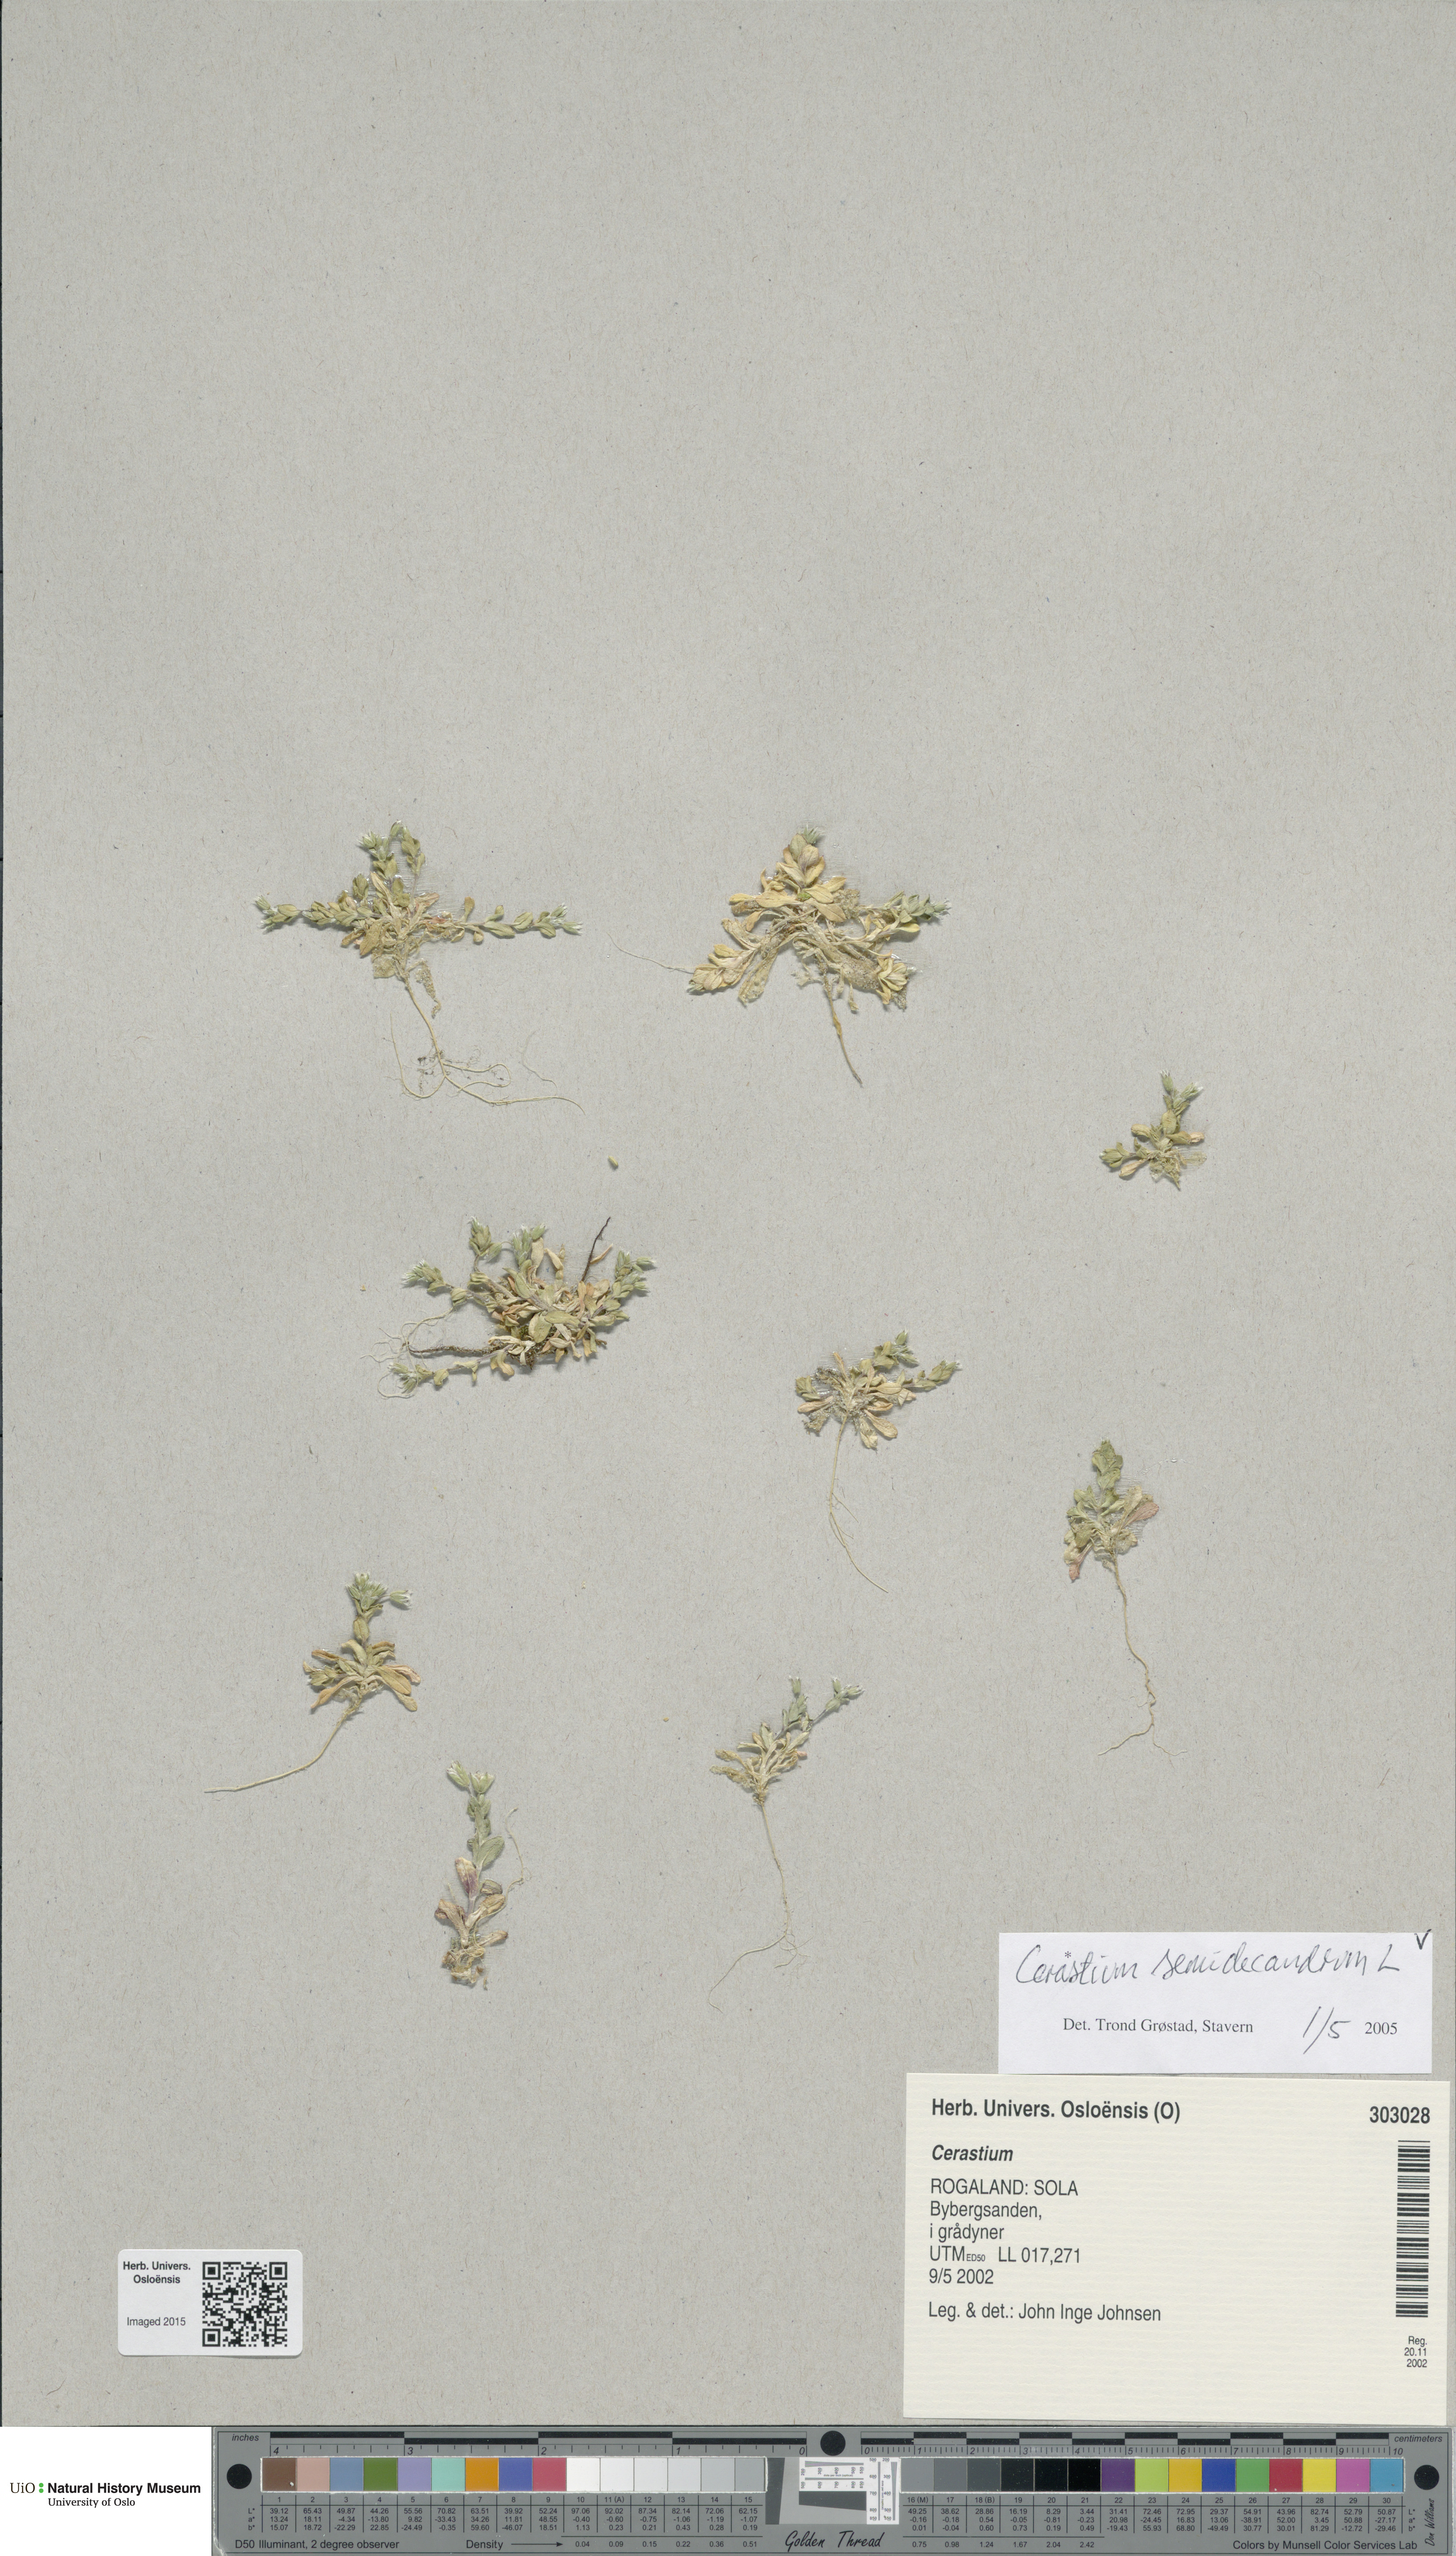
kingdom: Plantae
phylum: Tracheophyta
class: Magnoliopsida
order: Caryophyllales
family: Caryophyllaceae
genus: Cerastium
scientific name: Cerastium semidecandrum
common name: Little mouse-ear
